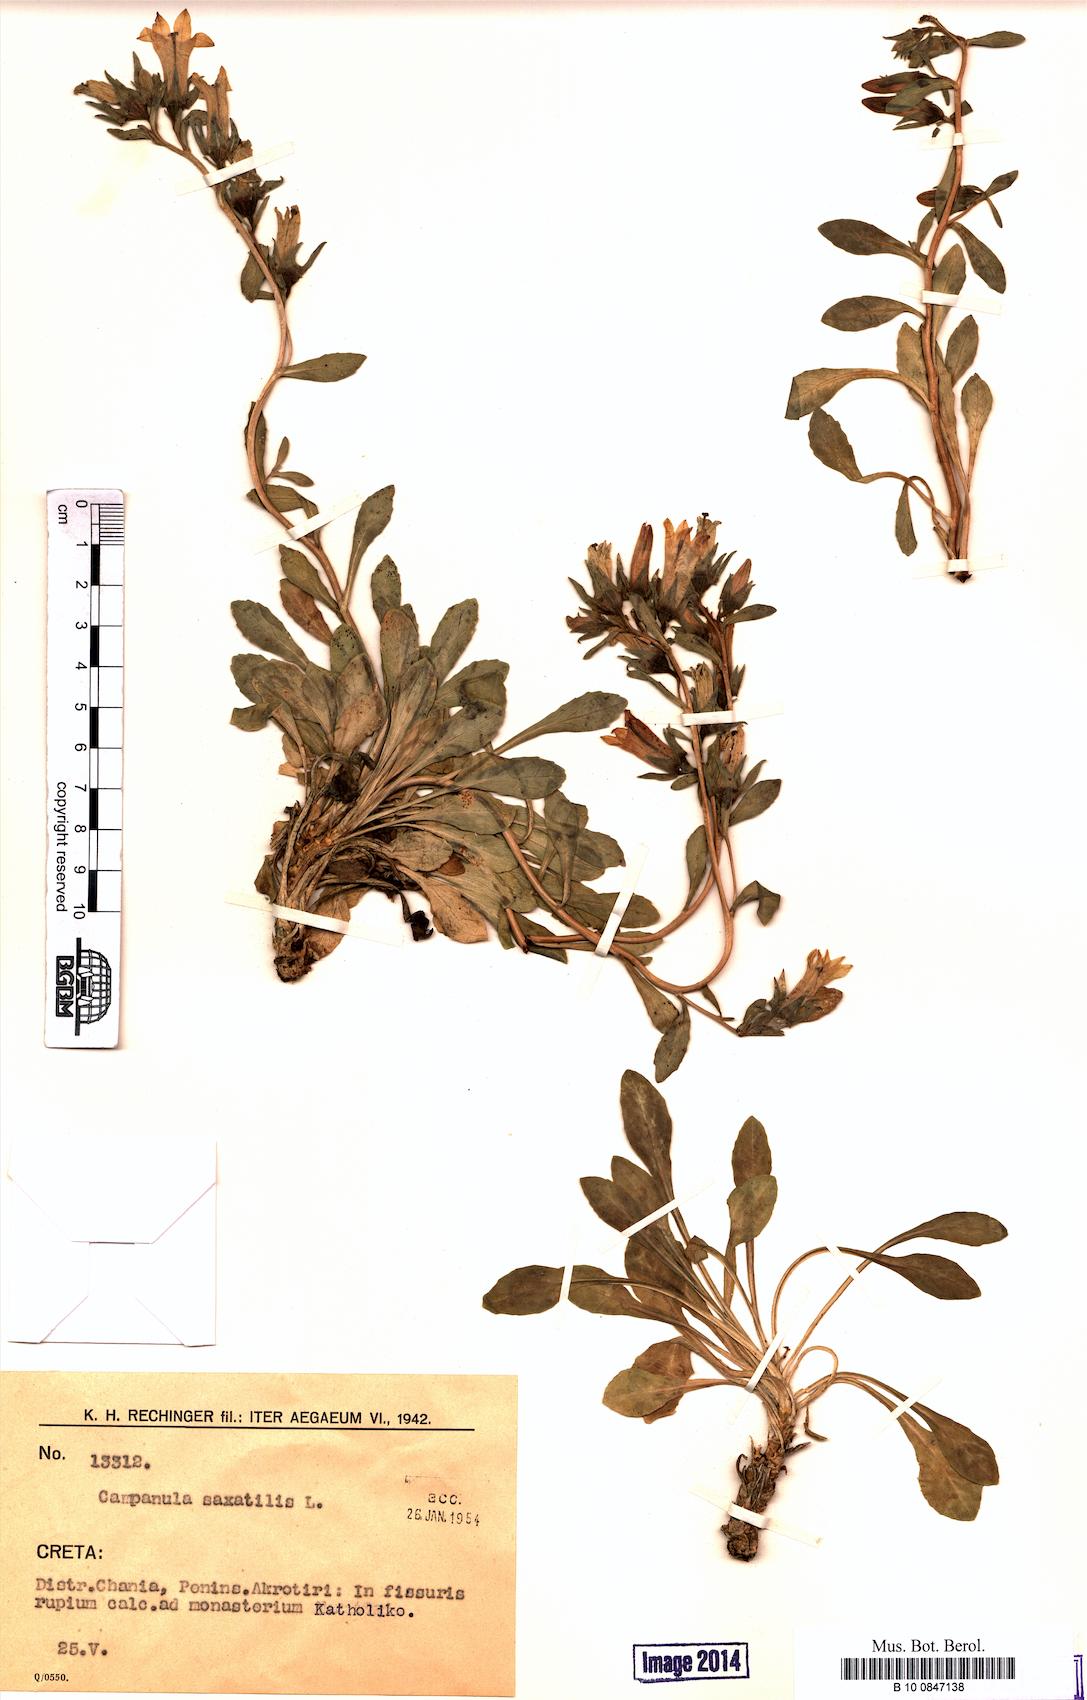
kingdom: Plantae
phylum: Tracheophyta
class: Magnoliopsida
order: Asterales
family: Campanulaceae
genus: Campanula
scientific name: Campanula saxatilis
